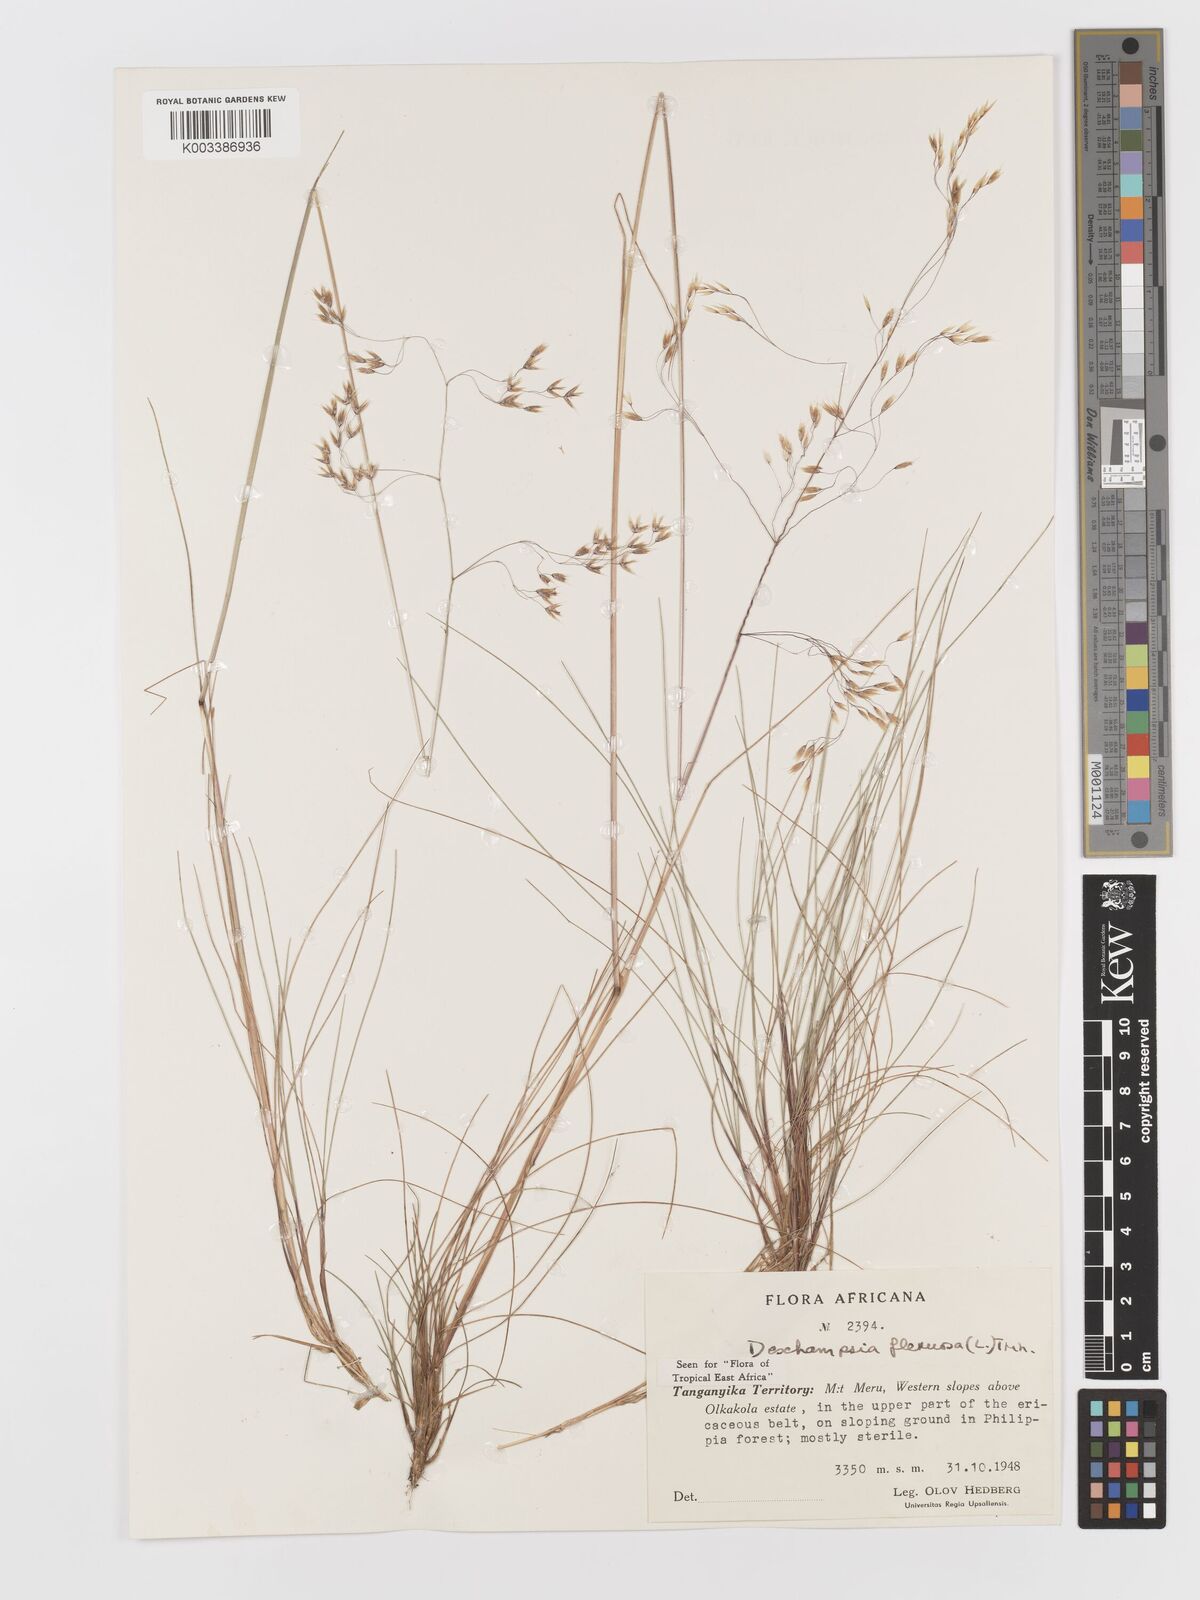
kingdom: Plantae
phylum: Tracheophyta
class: Liliopsida
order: Poales
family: Poaceae
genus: Avenella
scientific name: Avenella flexuosa
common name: Wavy hairgrass
